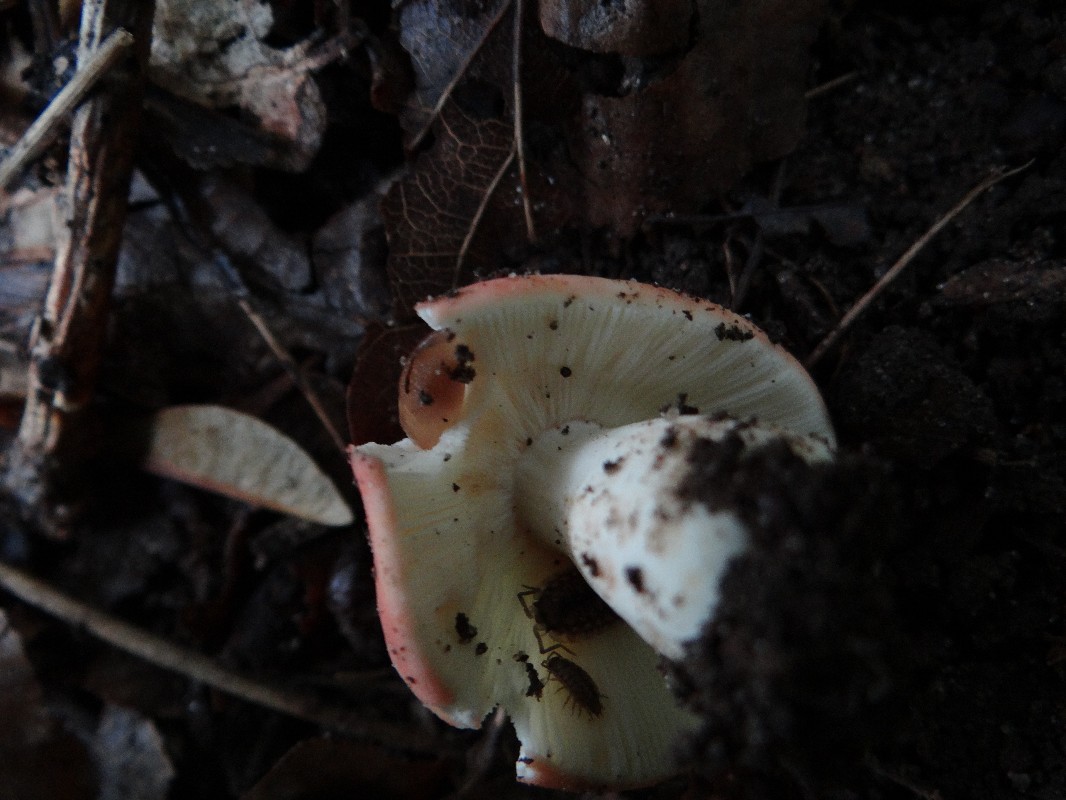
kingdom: Fungi
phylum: Basidiomycota
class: Agaricomycetes
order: Russulales
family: Russulaceae
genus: Russula
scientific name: Russula rosea
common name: fastkødet skørhat
